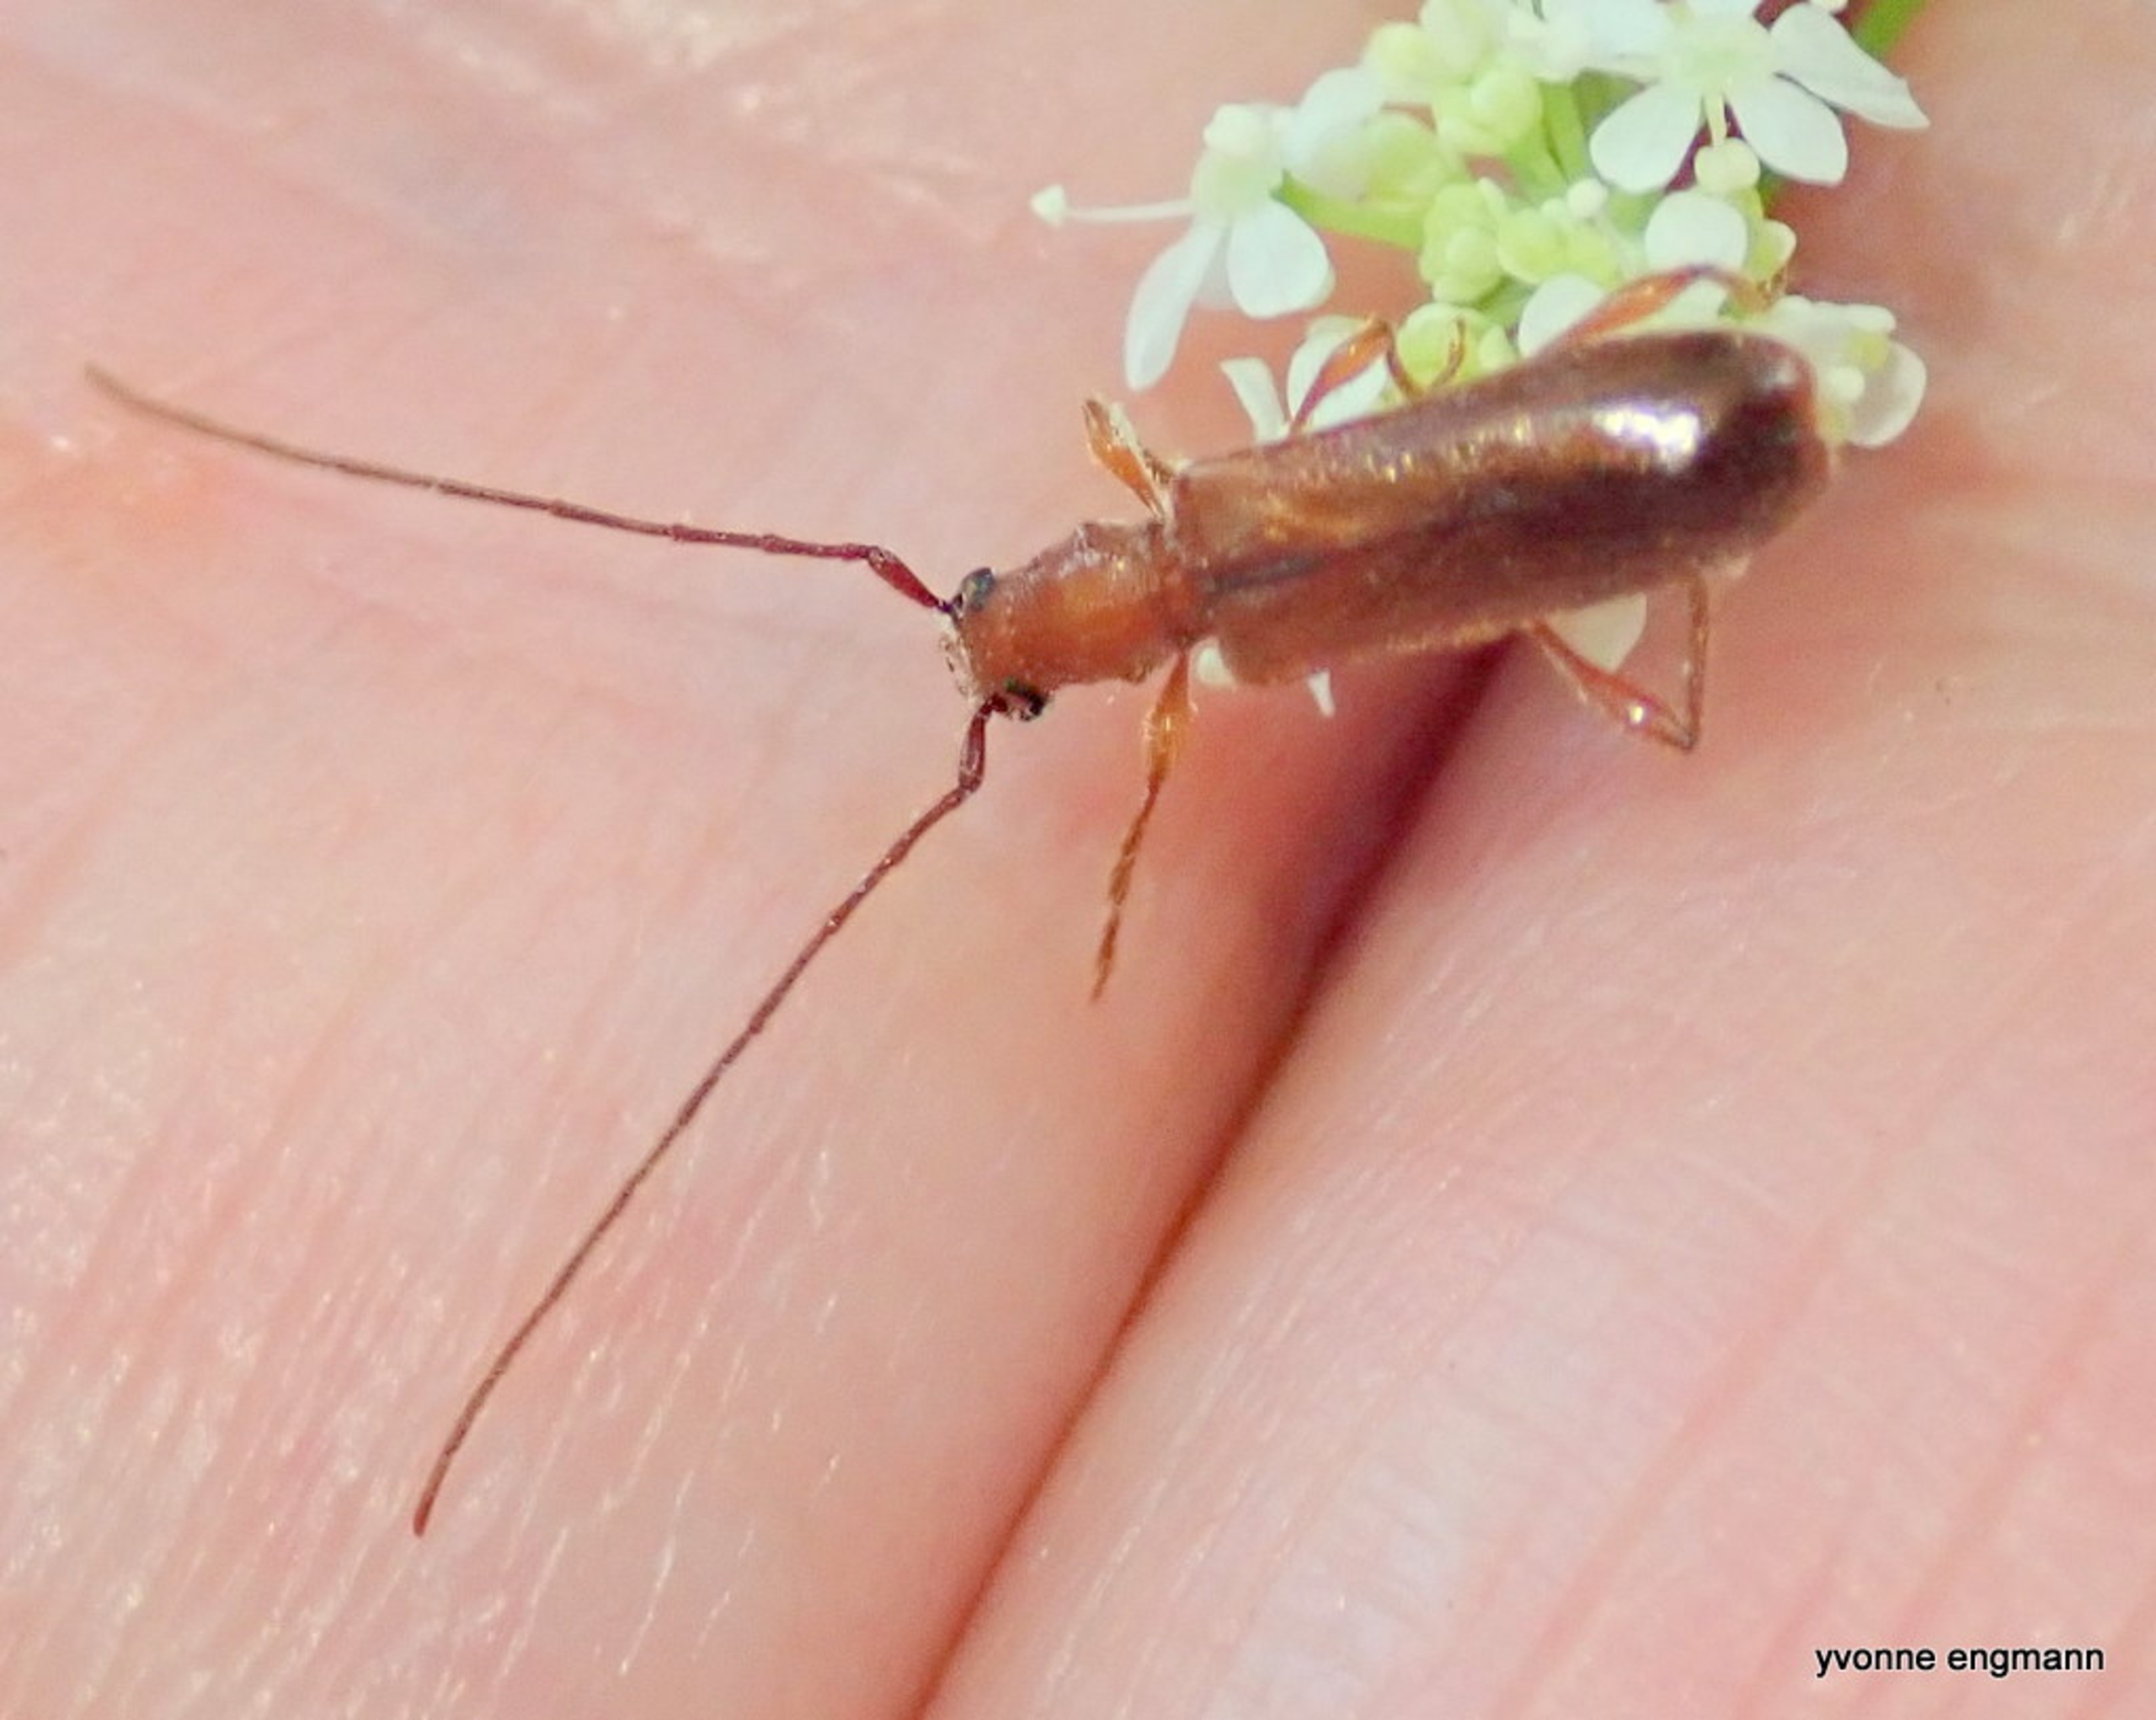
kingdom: Animalia
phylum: Arthropoda
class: Insecta
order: Coleoptera
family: Cerambycidae
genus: Obrium
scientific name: Obrium brunneum
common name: Blankbuk
